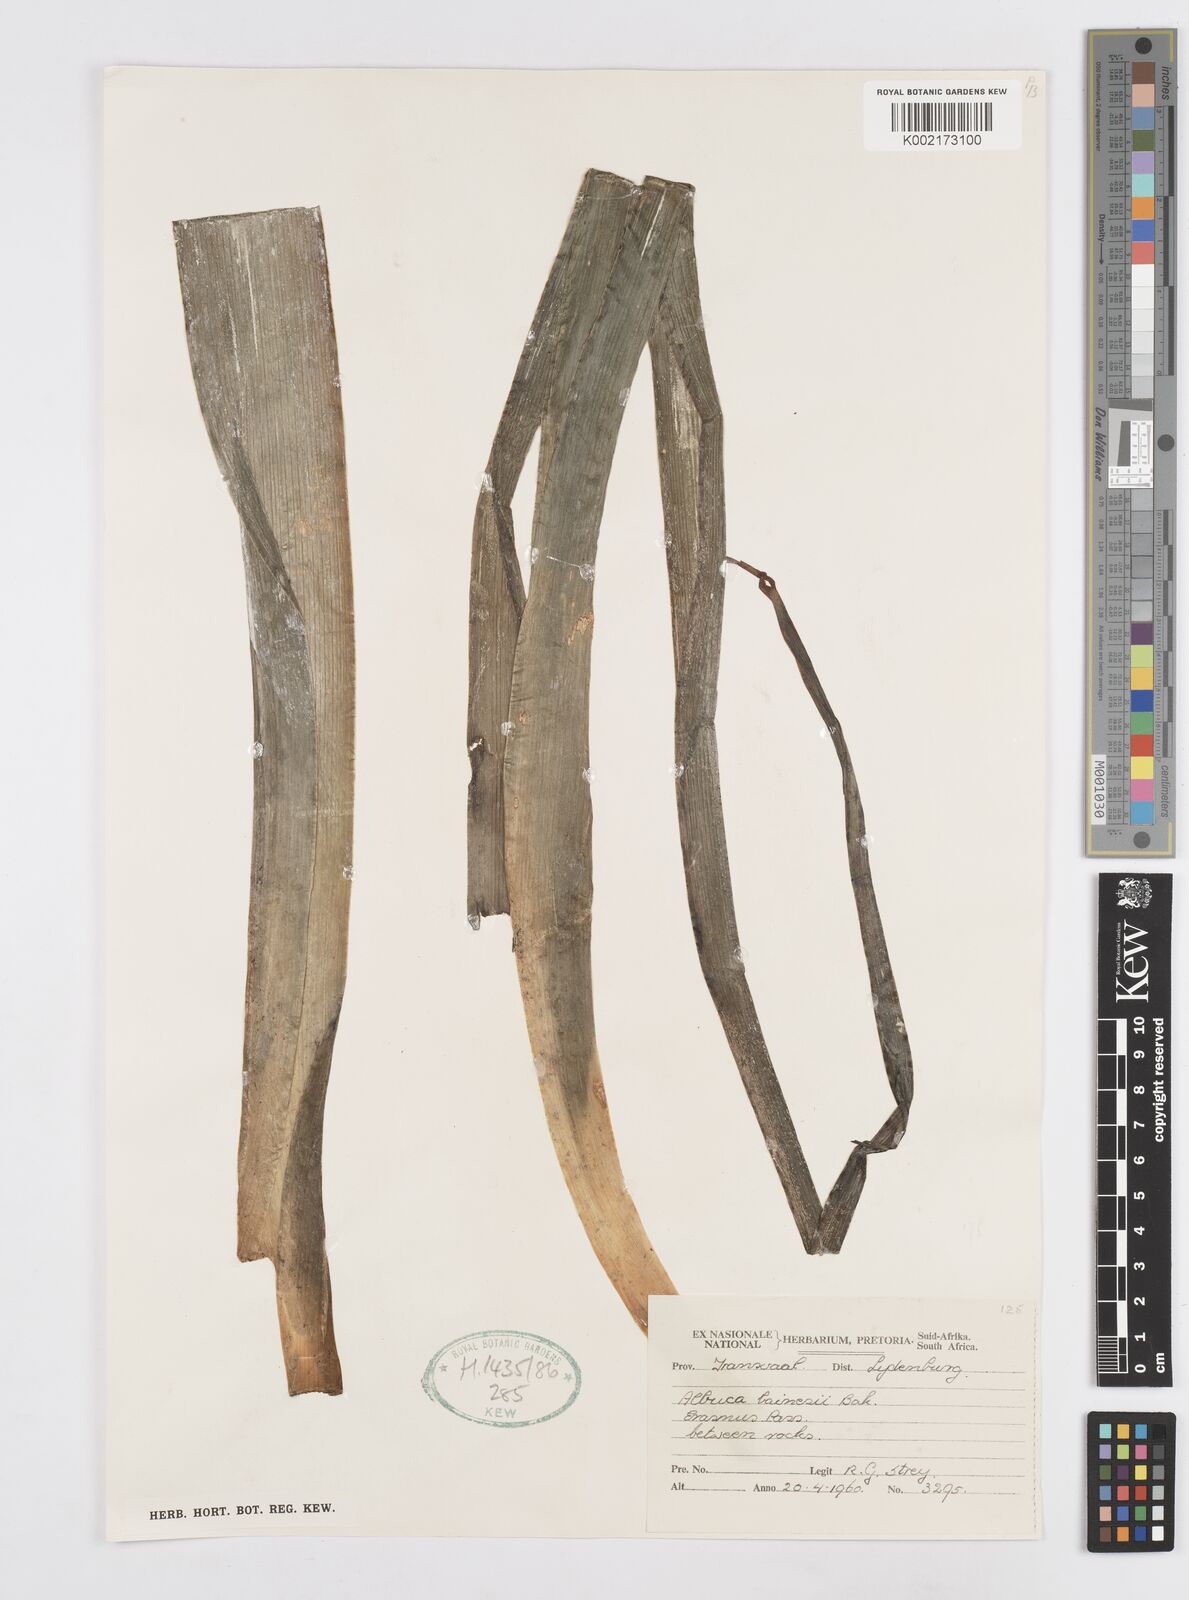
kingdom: Plantae
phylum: Tracheophyta
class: Liliopsida
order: Asparagales
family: Asparagaceae
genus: Albuca
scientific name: Albuca abyssinica
